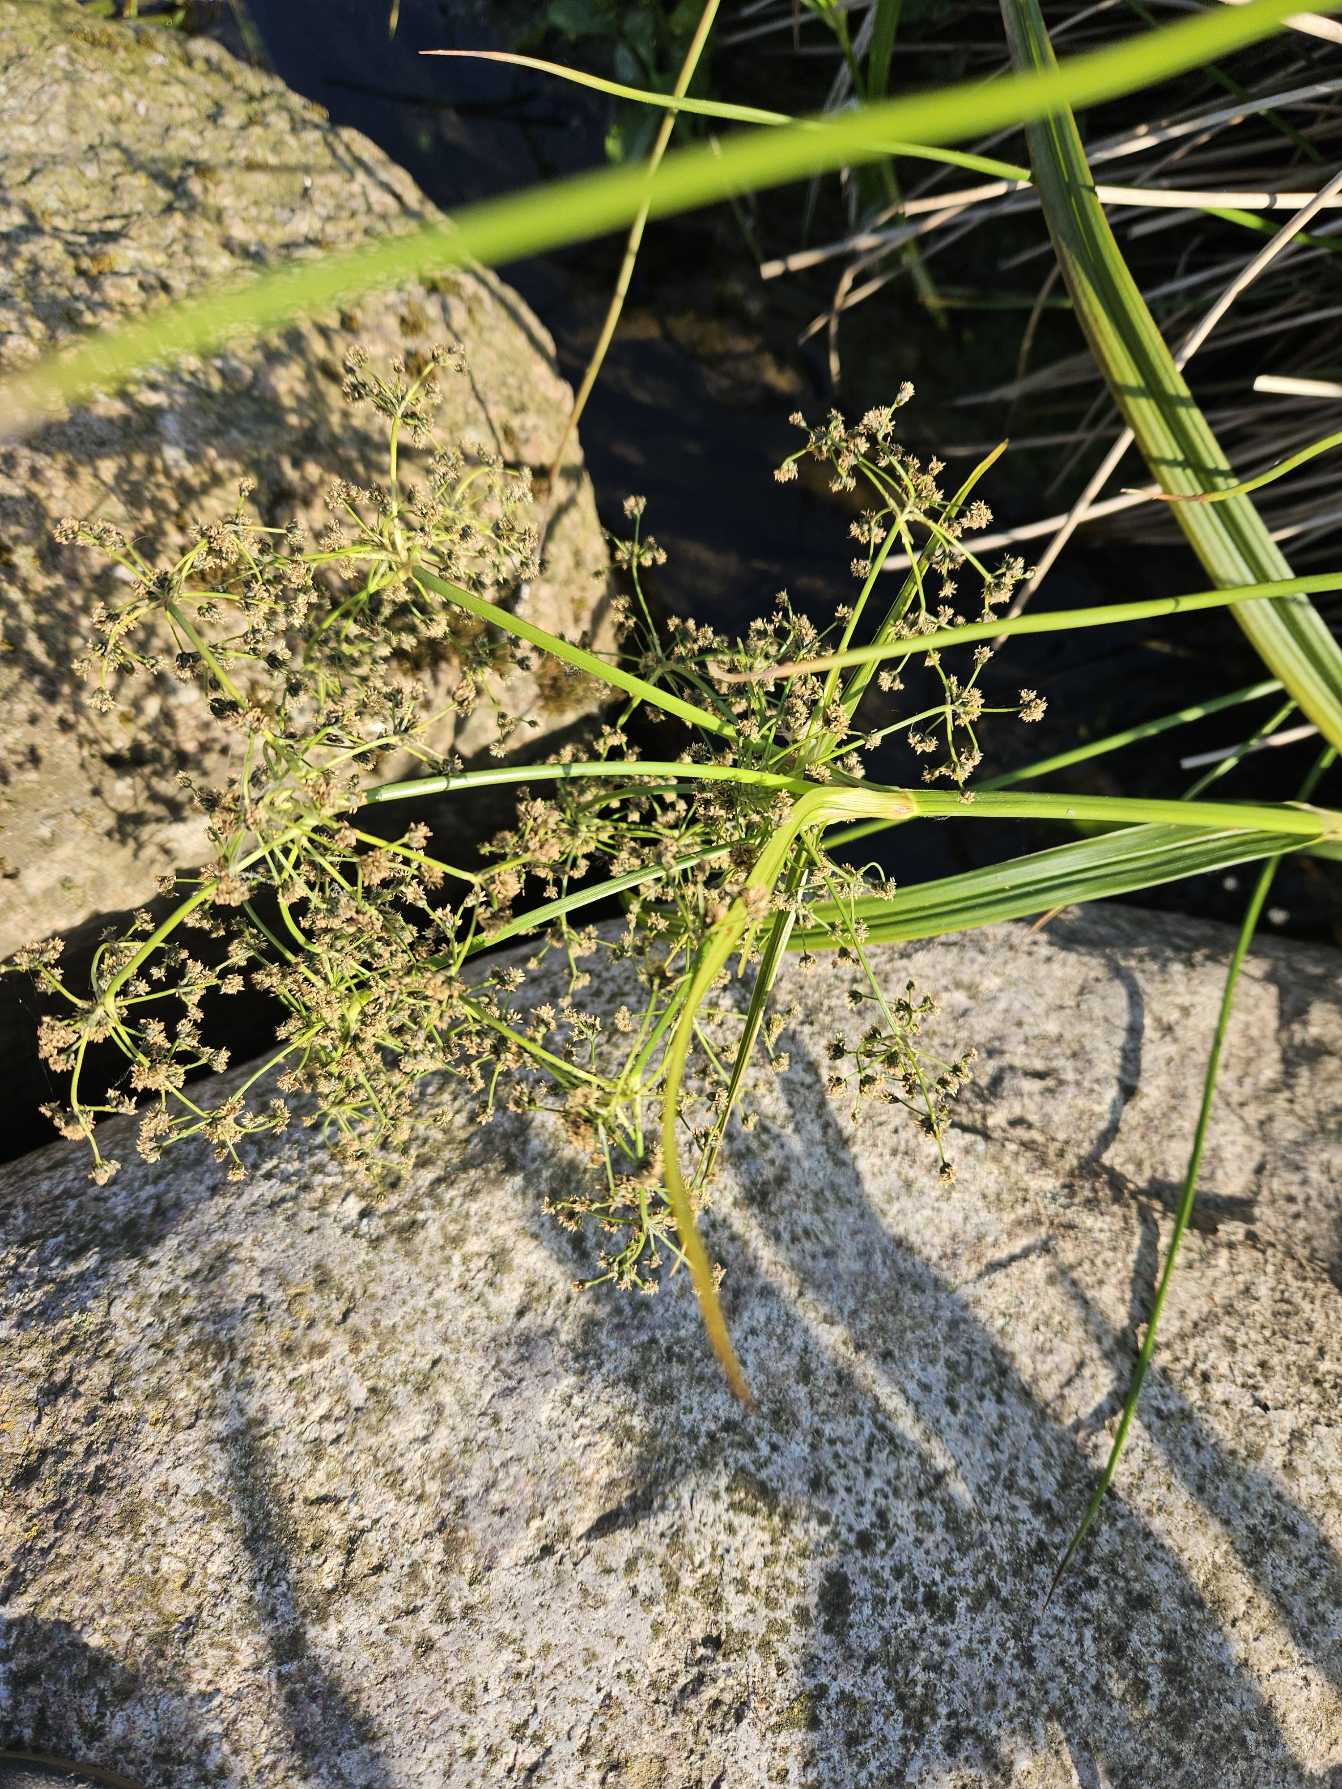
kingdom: Plantae
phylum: Tracheophyta
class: Liliopsida
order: Poales
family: Cyperaceae
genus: Scirpus
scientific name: Scirpus sylvaticus
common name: Skov-kogleaks
